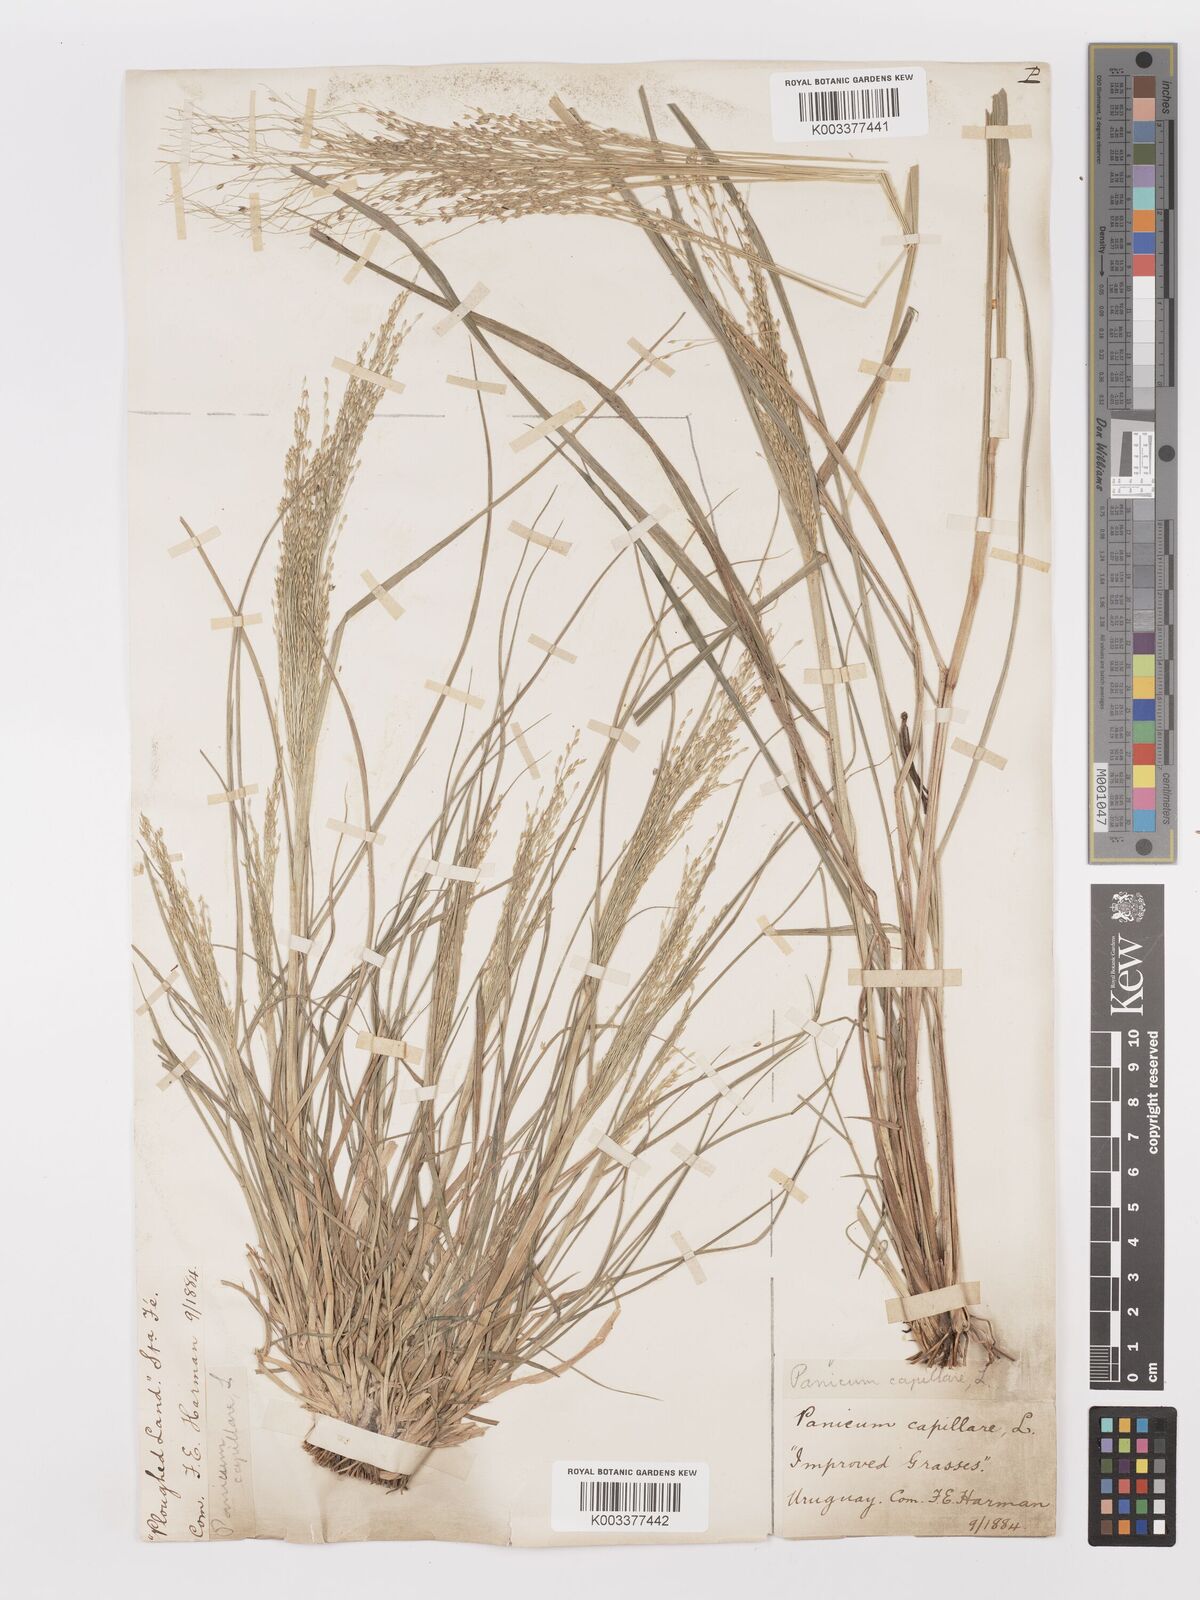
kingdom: Plantae
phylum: Tracheophyta
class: Liliopsida
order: Poales
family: Poaceae
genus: Panicum
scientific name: Panicum bergii
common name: Berg's panicgrass
